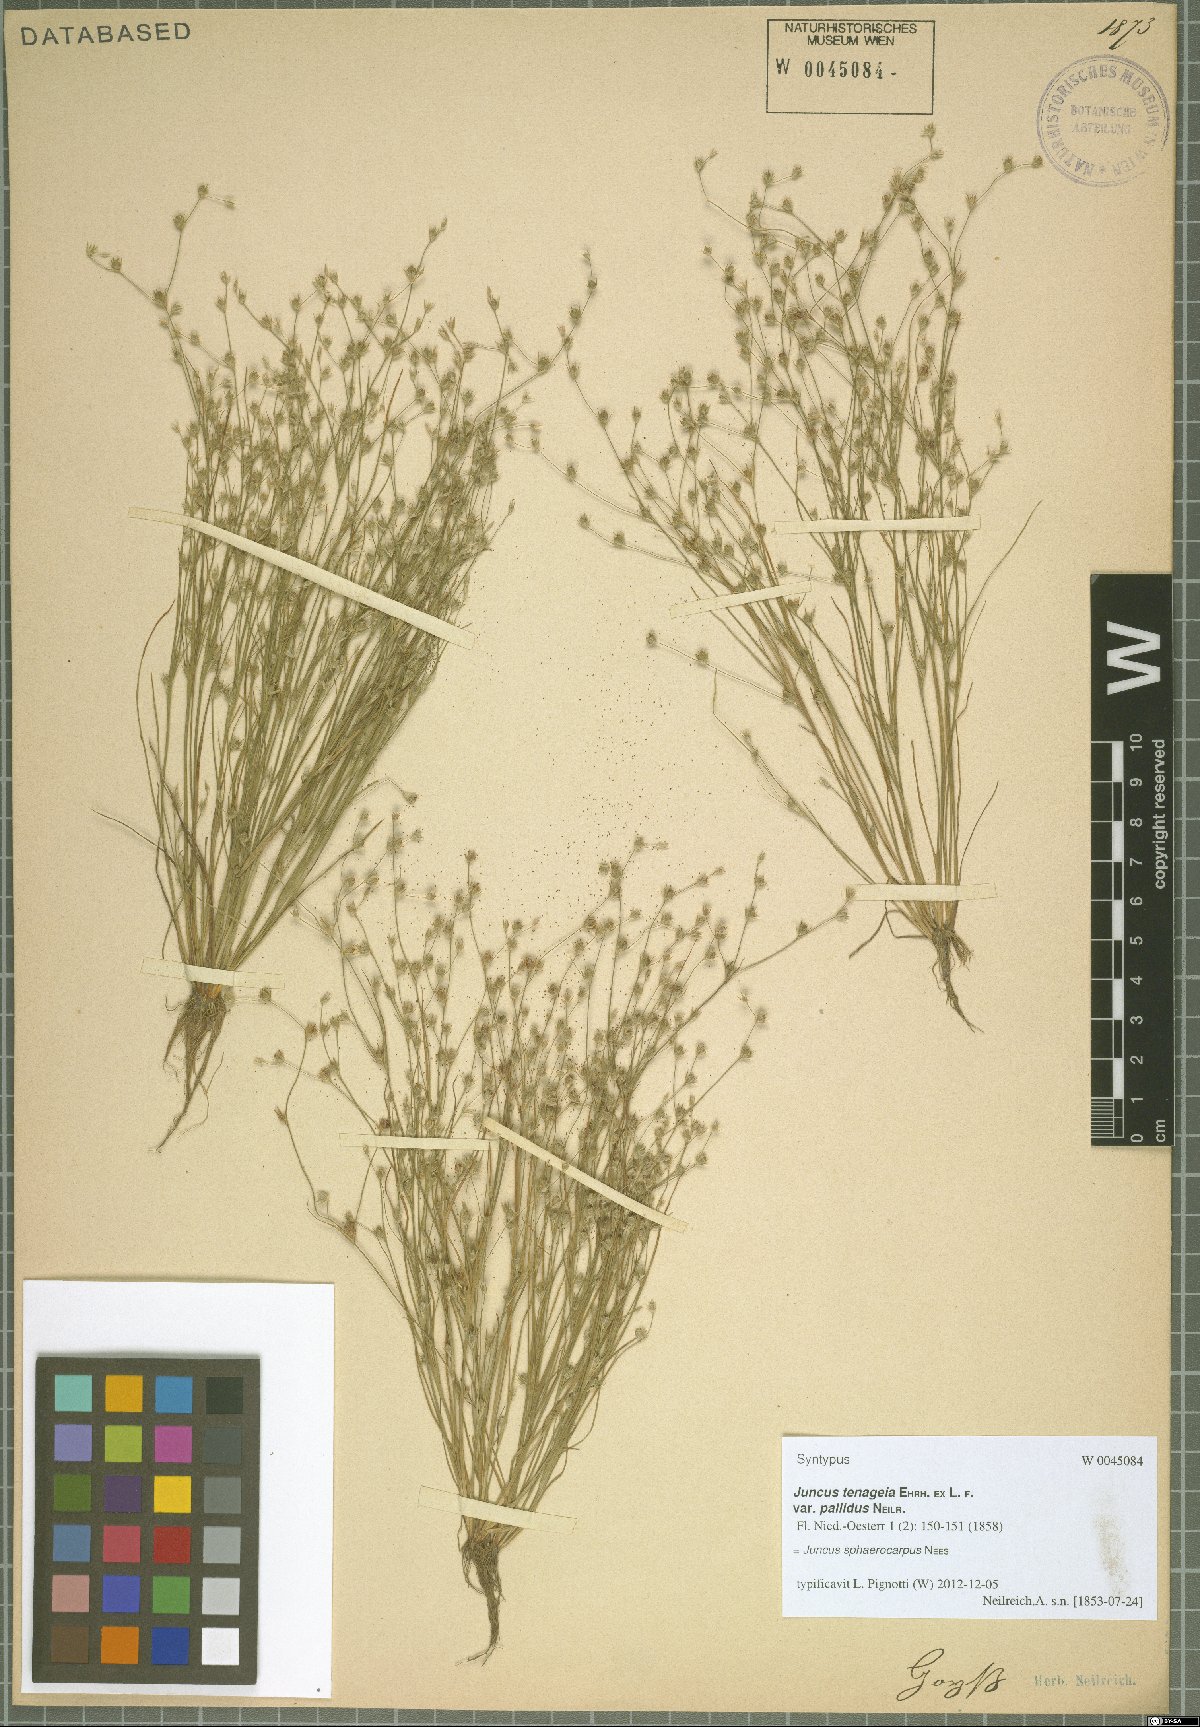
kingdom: Plantae
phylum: Tracheophyta
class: Liliopsida
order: Poales
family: Juncaceae
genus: Juncus
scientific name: Juncus sphaerocarpus
